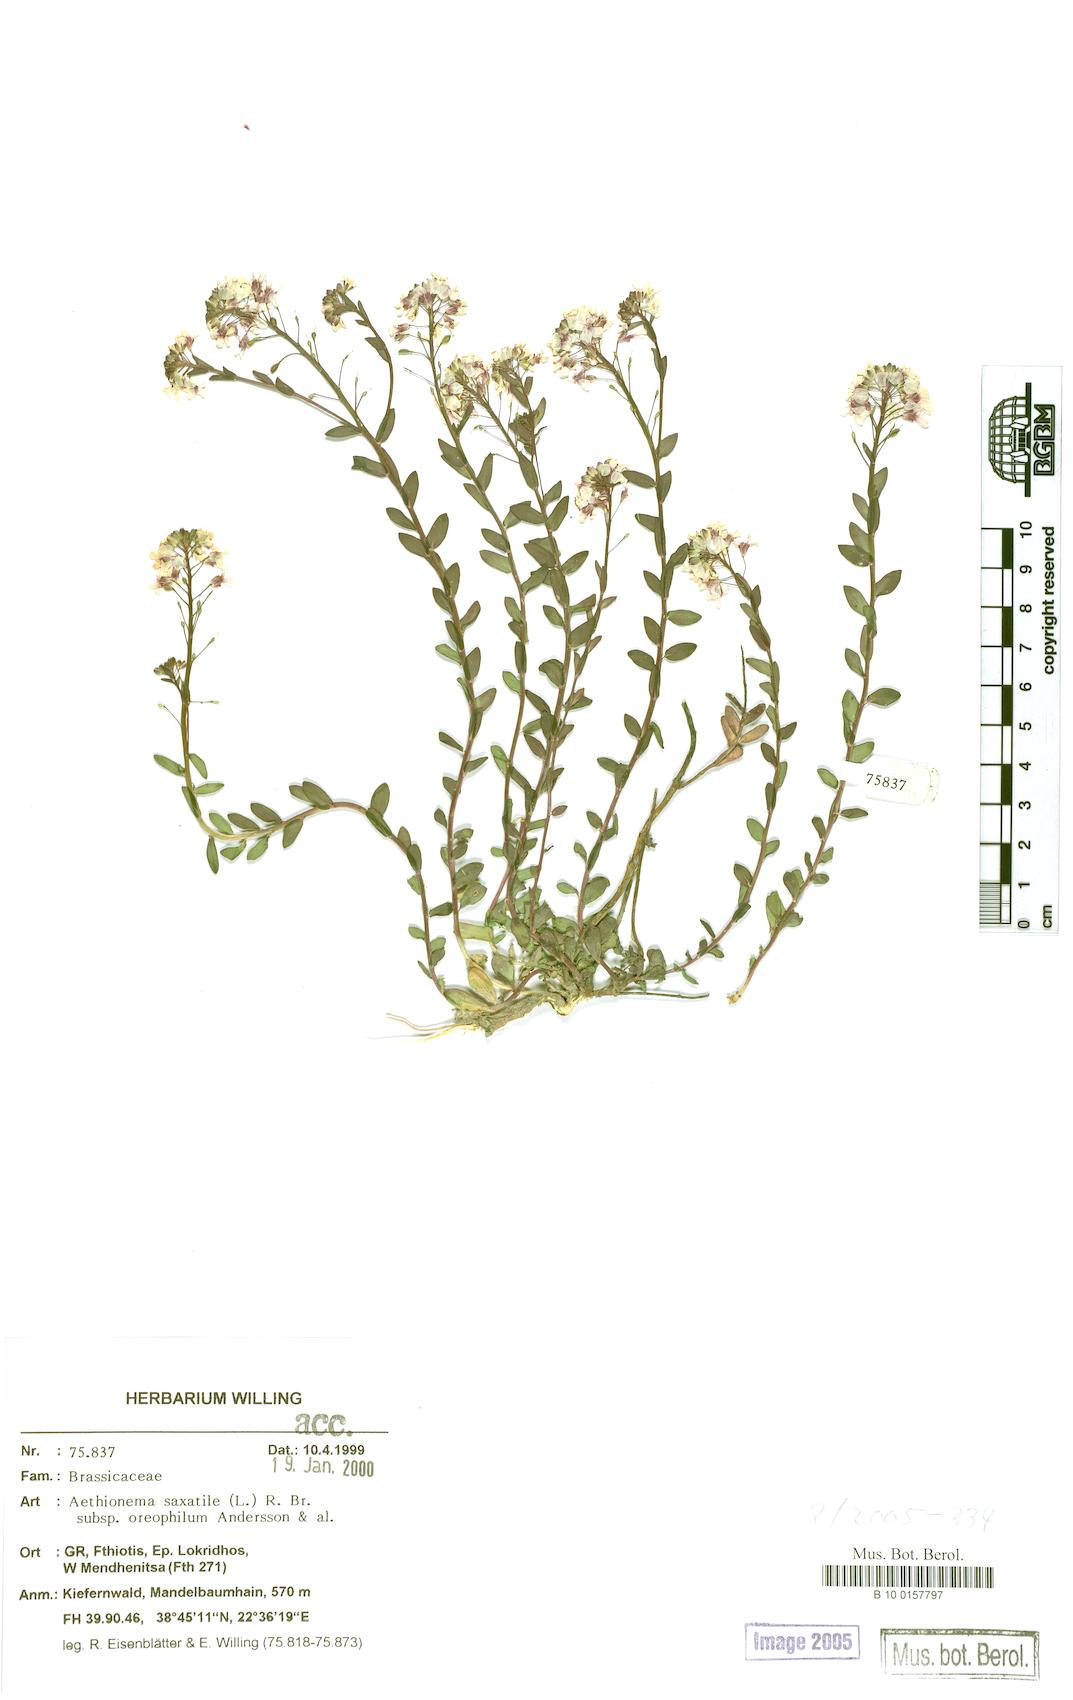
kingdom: Plantae
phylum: Tracheophyta
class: Magnoliopsida
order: Brassicales
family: Brassicaceae
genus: Aethionema
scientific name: Aethionema saxatile
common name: Burnt candytuft
